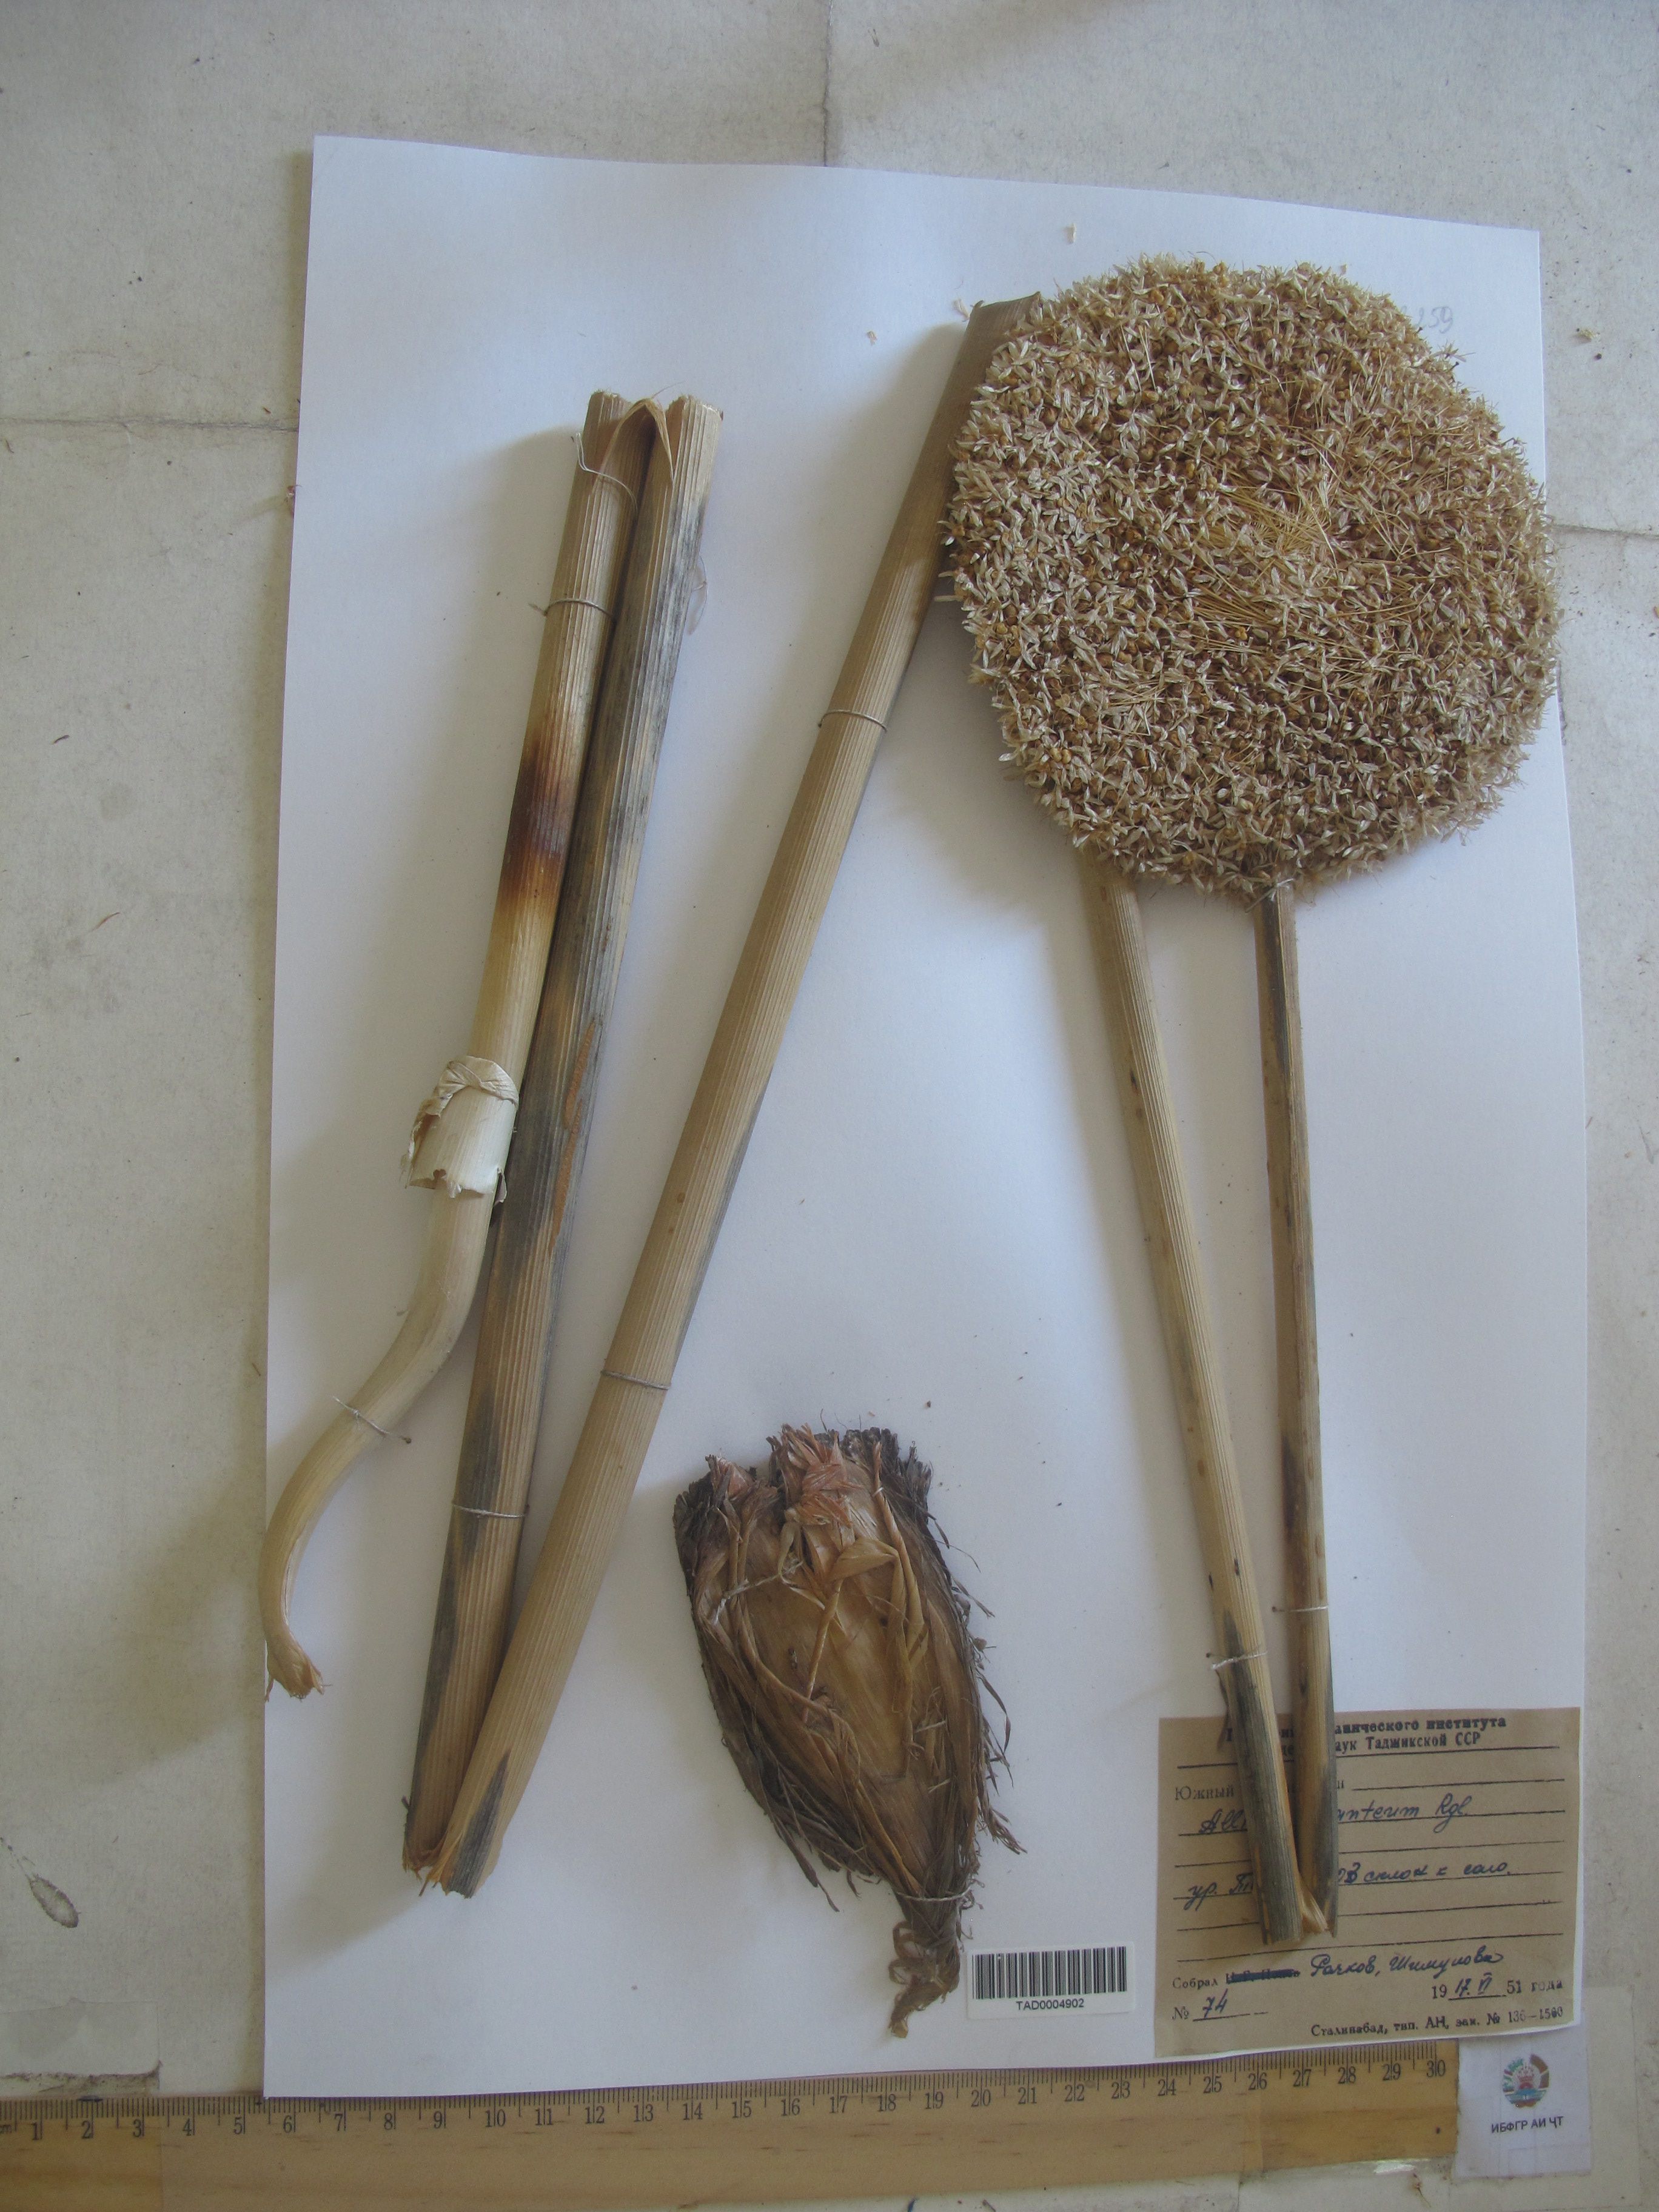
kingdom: Plantae
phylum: Tracheophyta
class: Liliopsida
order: Asparagales
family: Amaryllidaceae
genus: Allium
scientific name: Allium giganteum
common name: Giant onion
